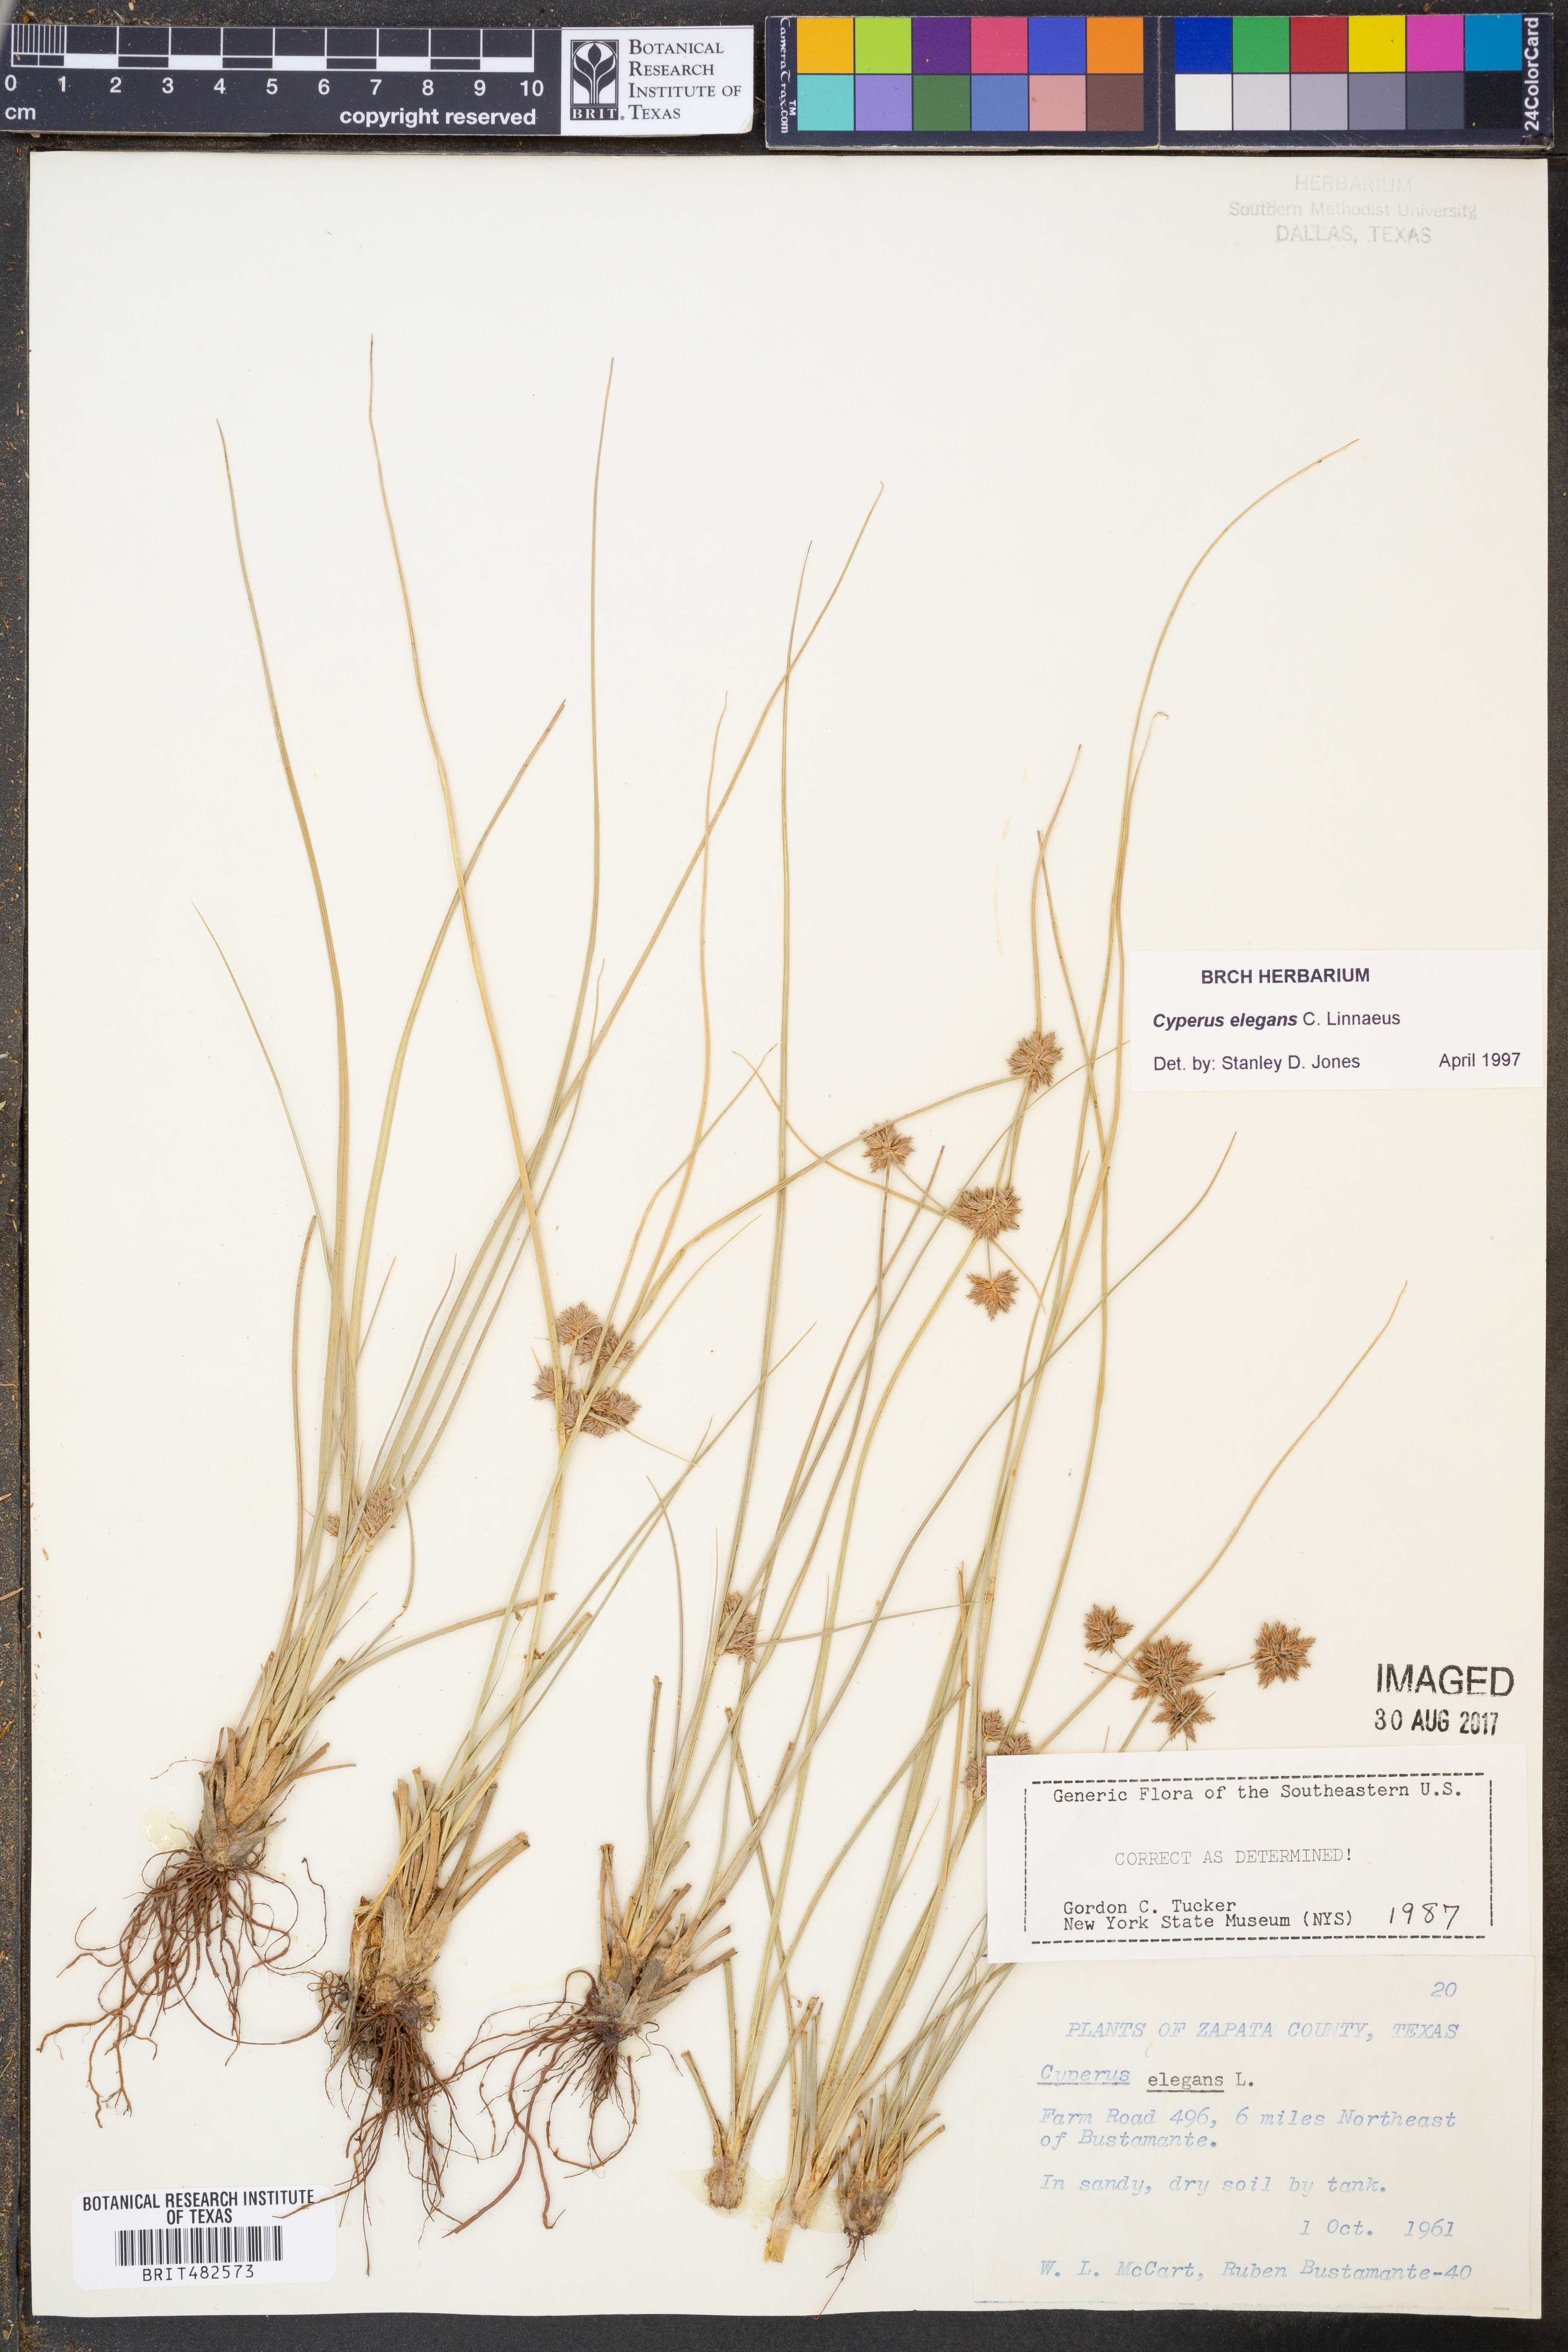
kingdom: Plantae
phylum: Tracheophyta
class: Liliopsida
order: Poales
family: Cyperaceae
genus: Cyperus
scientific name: Cyperus elegans
